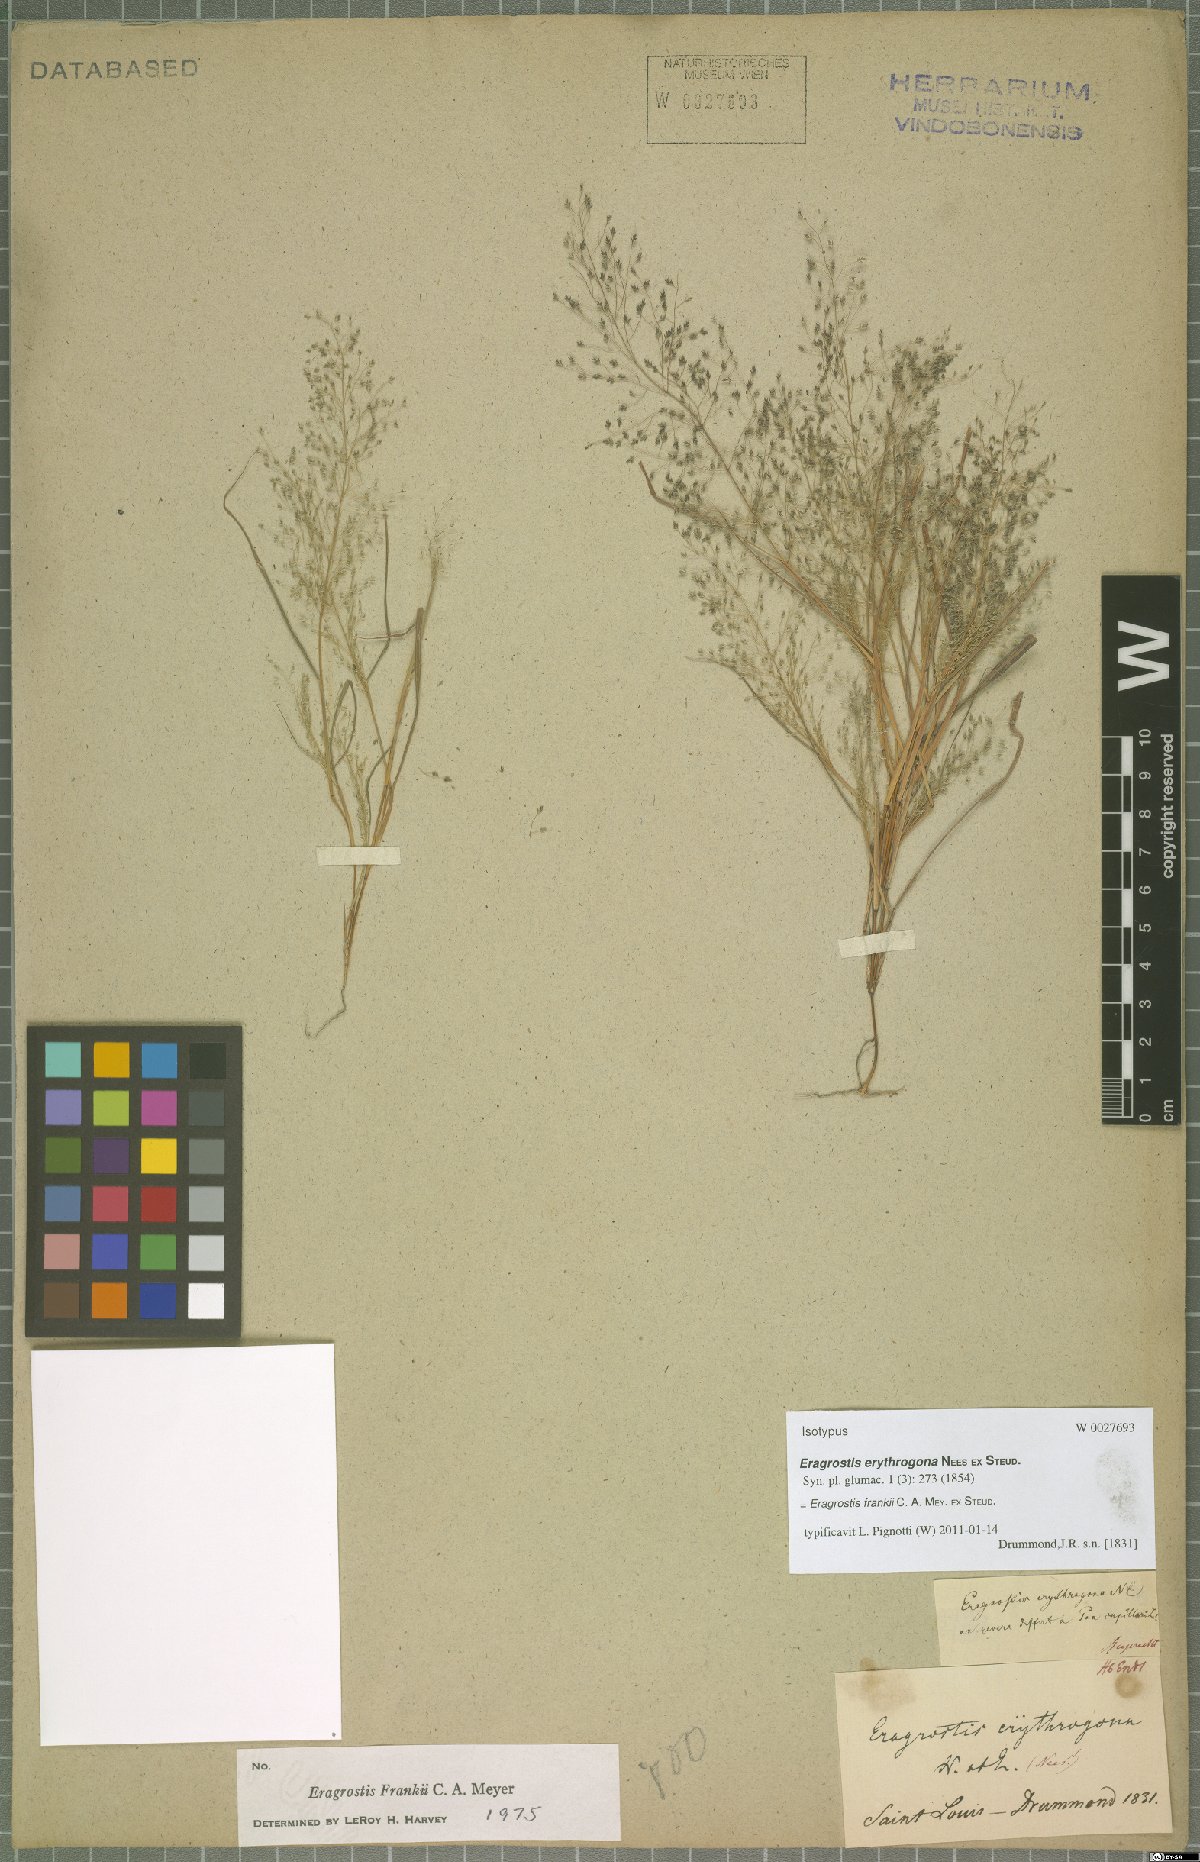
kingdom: Plantae
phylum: Tracheophyta
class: Liliopsida
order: Poales
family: Poaceae
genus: Eragrostis
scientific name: Eragrostis frankii
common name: Frank's lovegrass
